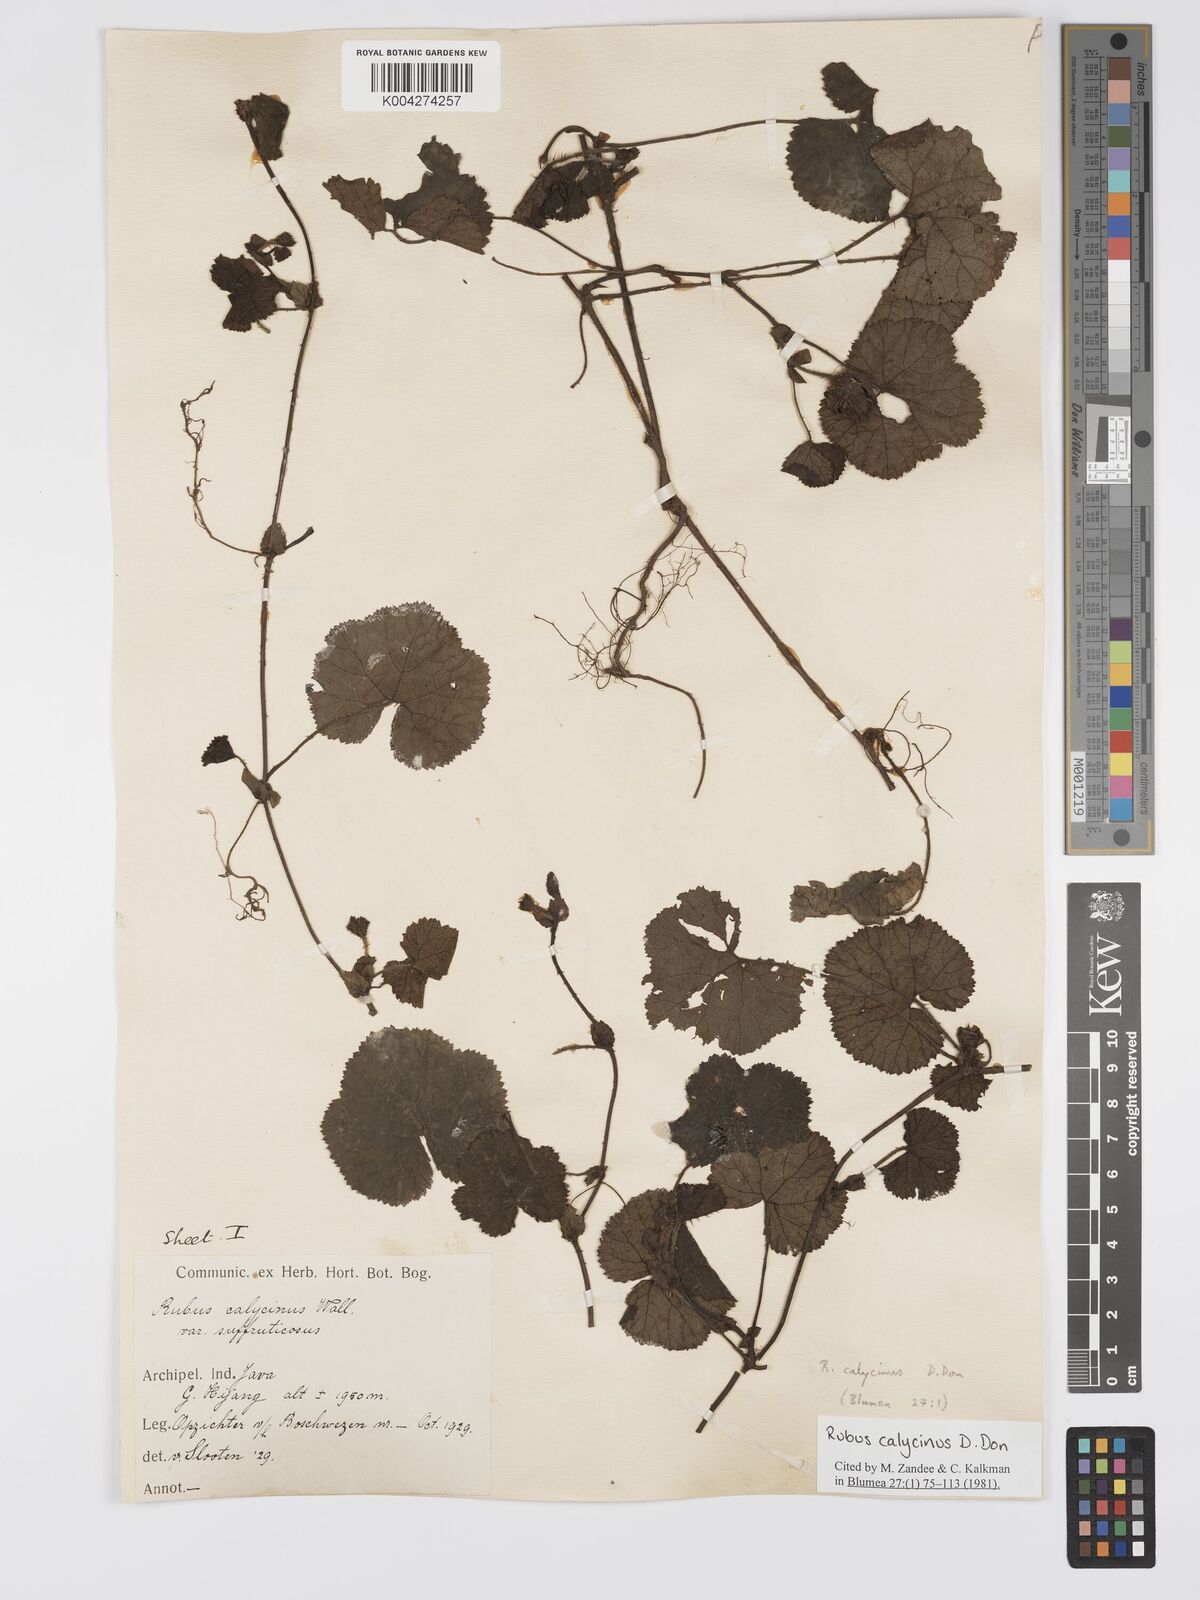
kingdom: Plantae
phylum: Tracheophyta
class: Magnoliopsida
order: Rosales
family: Rosaceae
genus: Rubus
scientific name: Rubus calycinus
